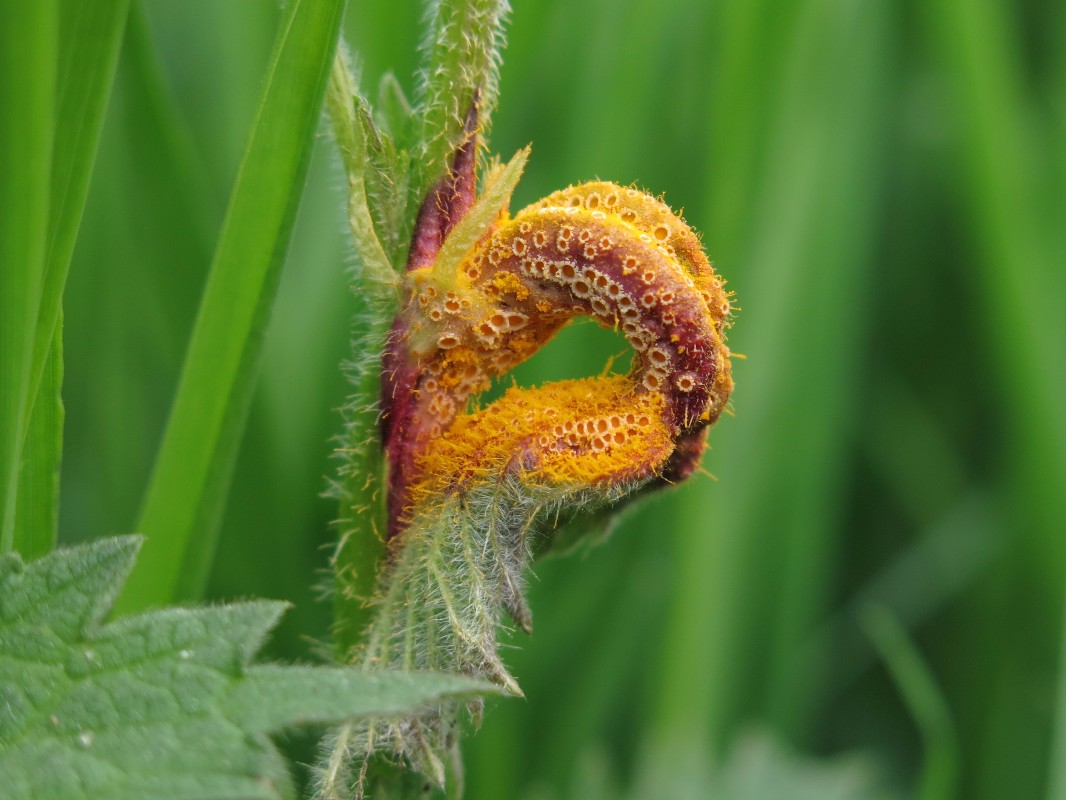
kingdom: Fungi
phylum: Basidiomycota
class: Pucciniomycetes
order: Pucciniales
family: Pucciniaceae
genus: Puccinia
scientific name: Puccinia urticata
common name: nældegalle-tvecellerust
